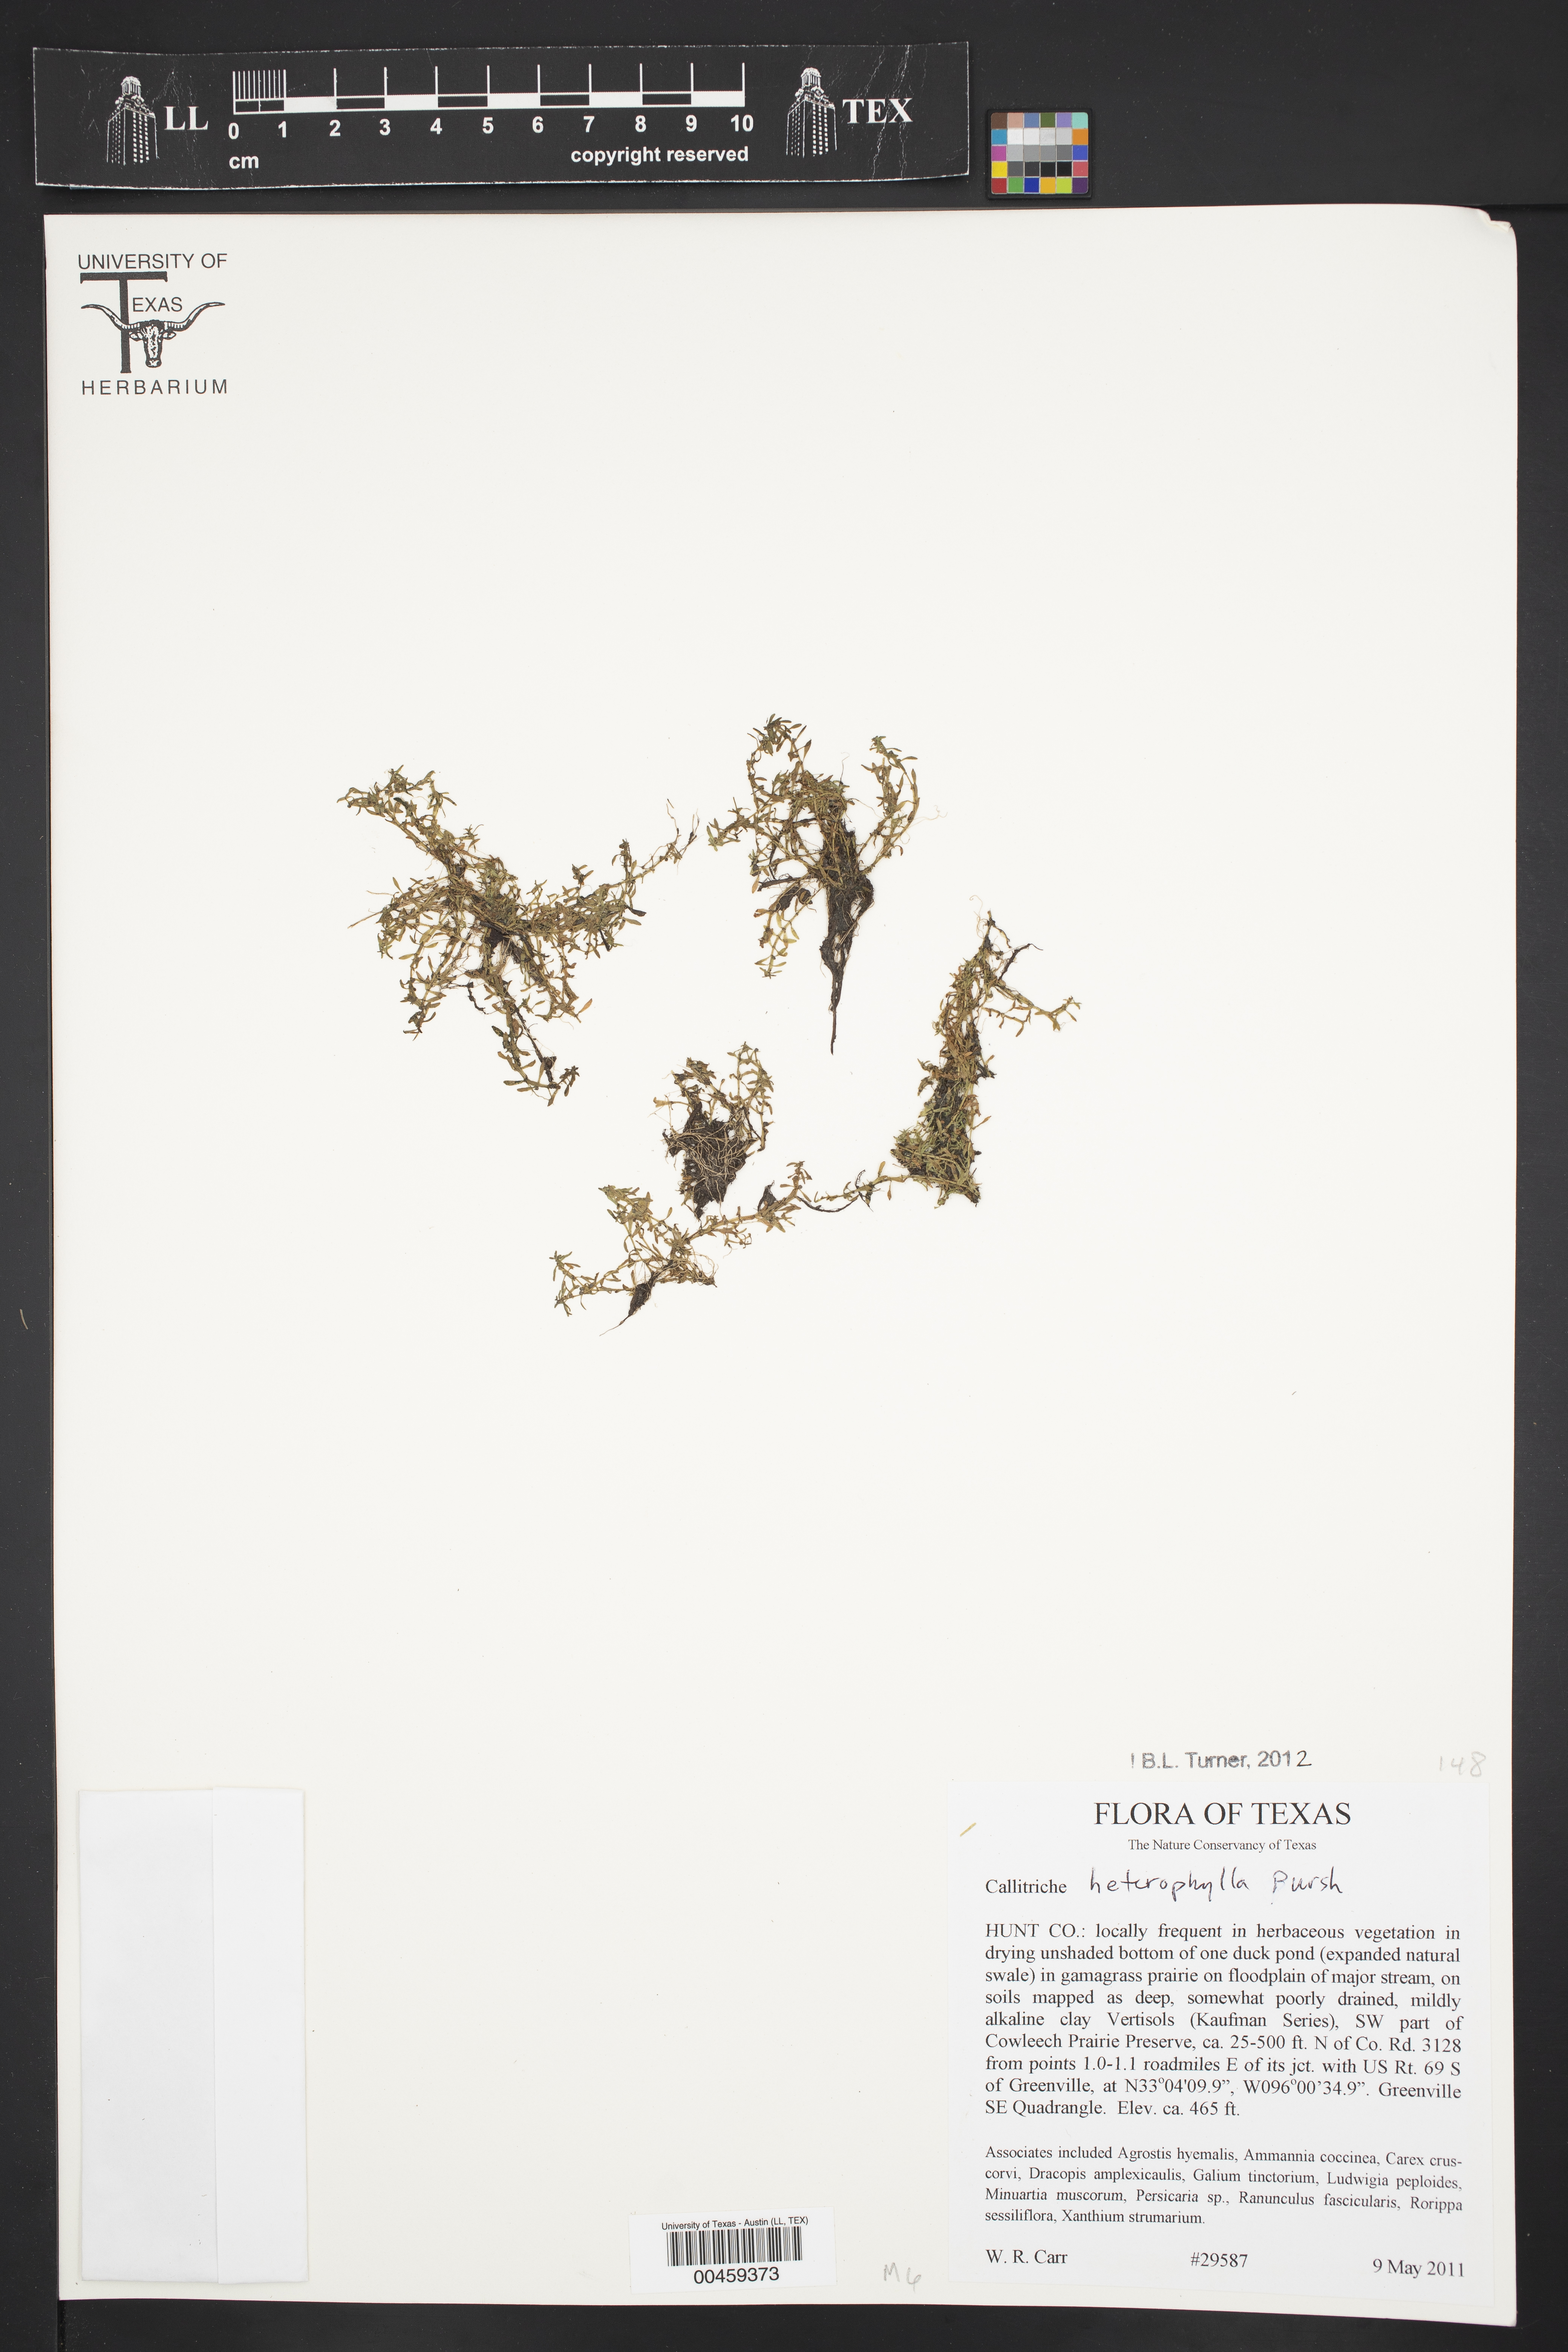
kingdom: Plantae
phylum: Tracheophyta
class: Magnoliopsida
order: Lamiales
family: Plantaginaceae
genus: Callitriche
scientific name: Callitriche heterophylla
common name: Two-headed water-starwort
